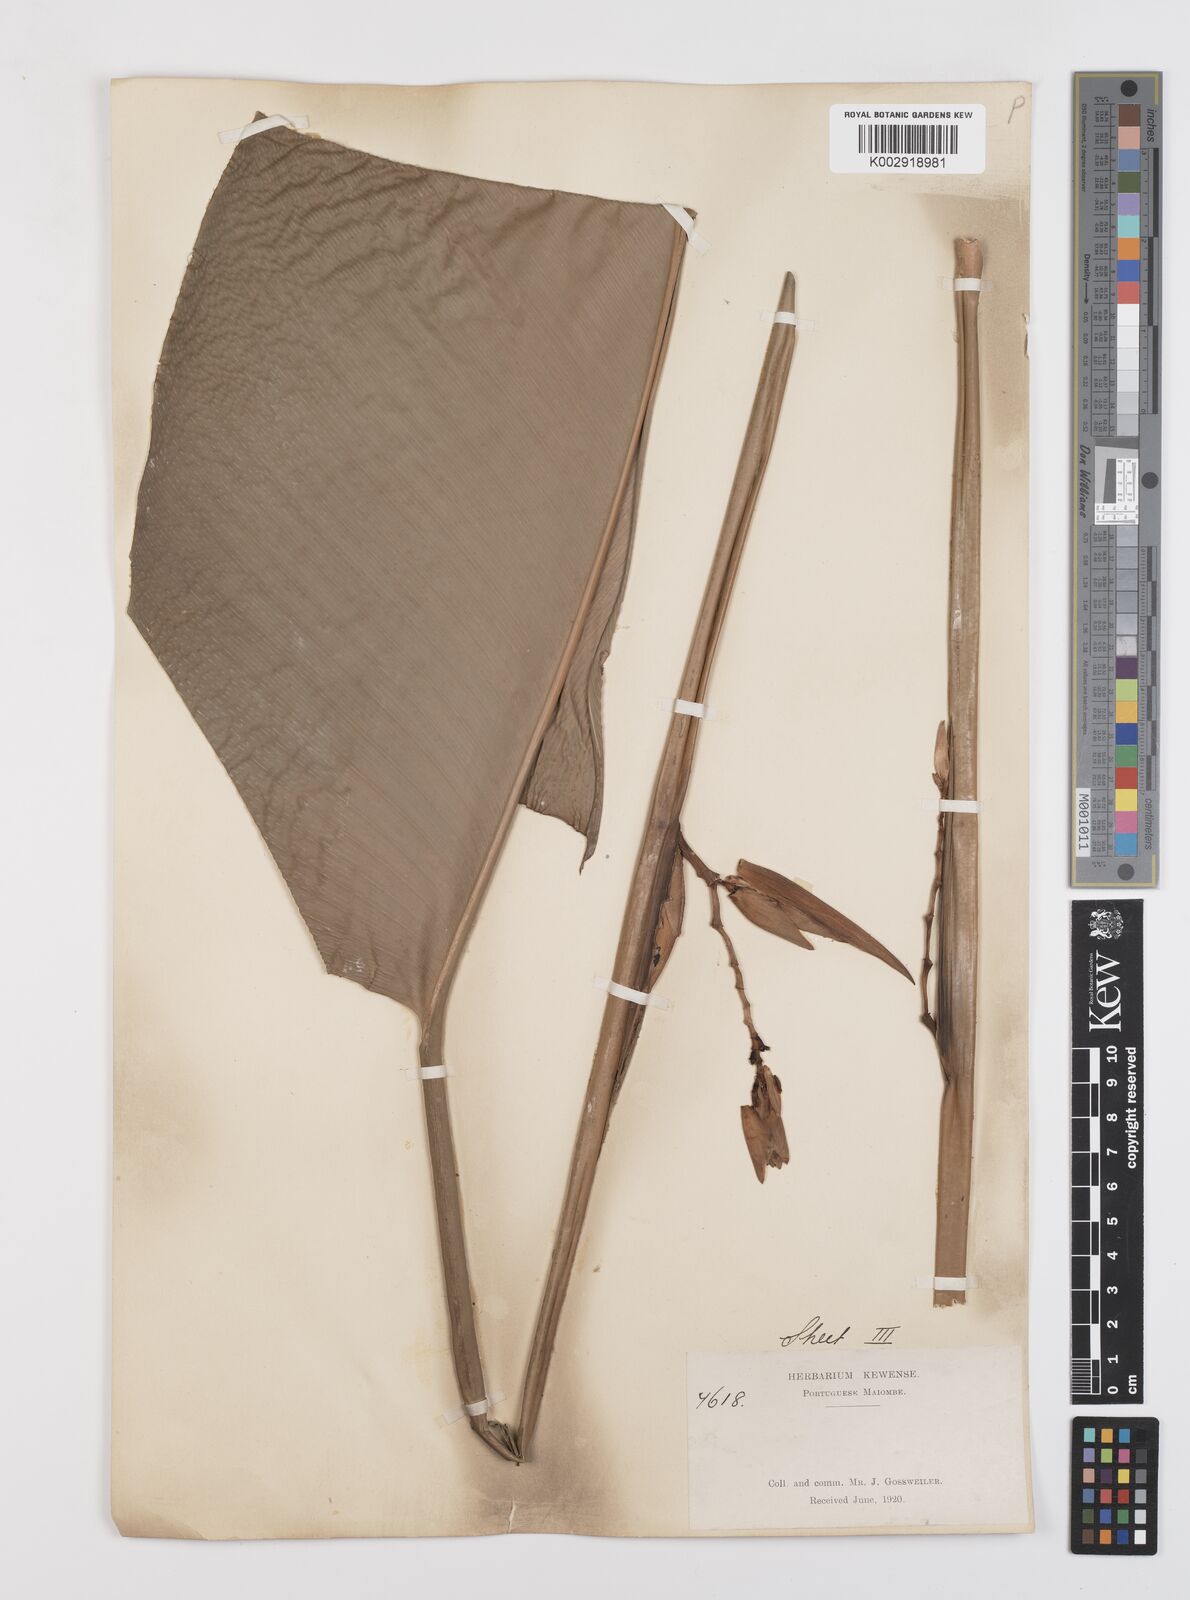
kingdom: Plantae
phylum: Tracheophyta
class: Liliopsida
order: Zingiberales
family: Marantaceae
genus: Megaphrynium
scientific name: Megaphrynium macrostachyum
